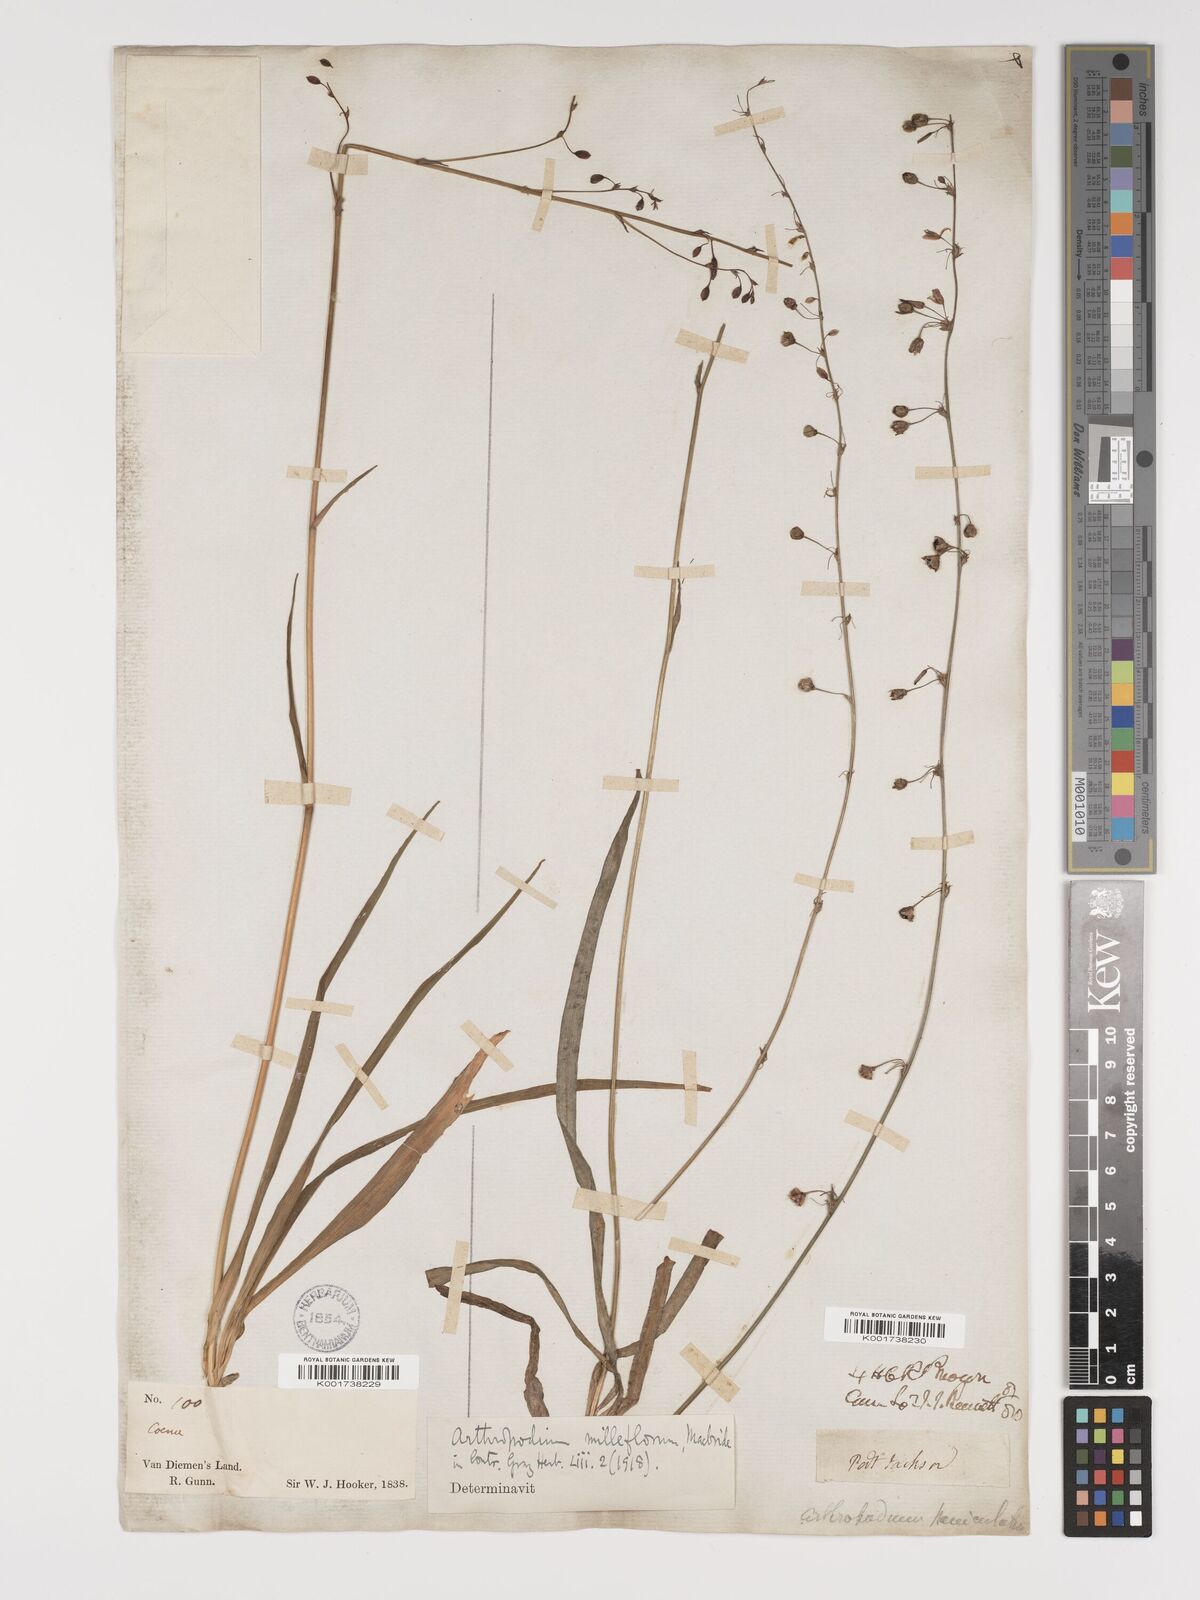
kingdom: Plantae
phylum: Tracheophyta
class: Liliopsida
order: Asparagales
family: Asparagaceae
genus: Arthropodium
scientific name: Arthropodium milleflorum
